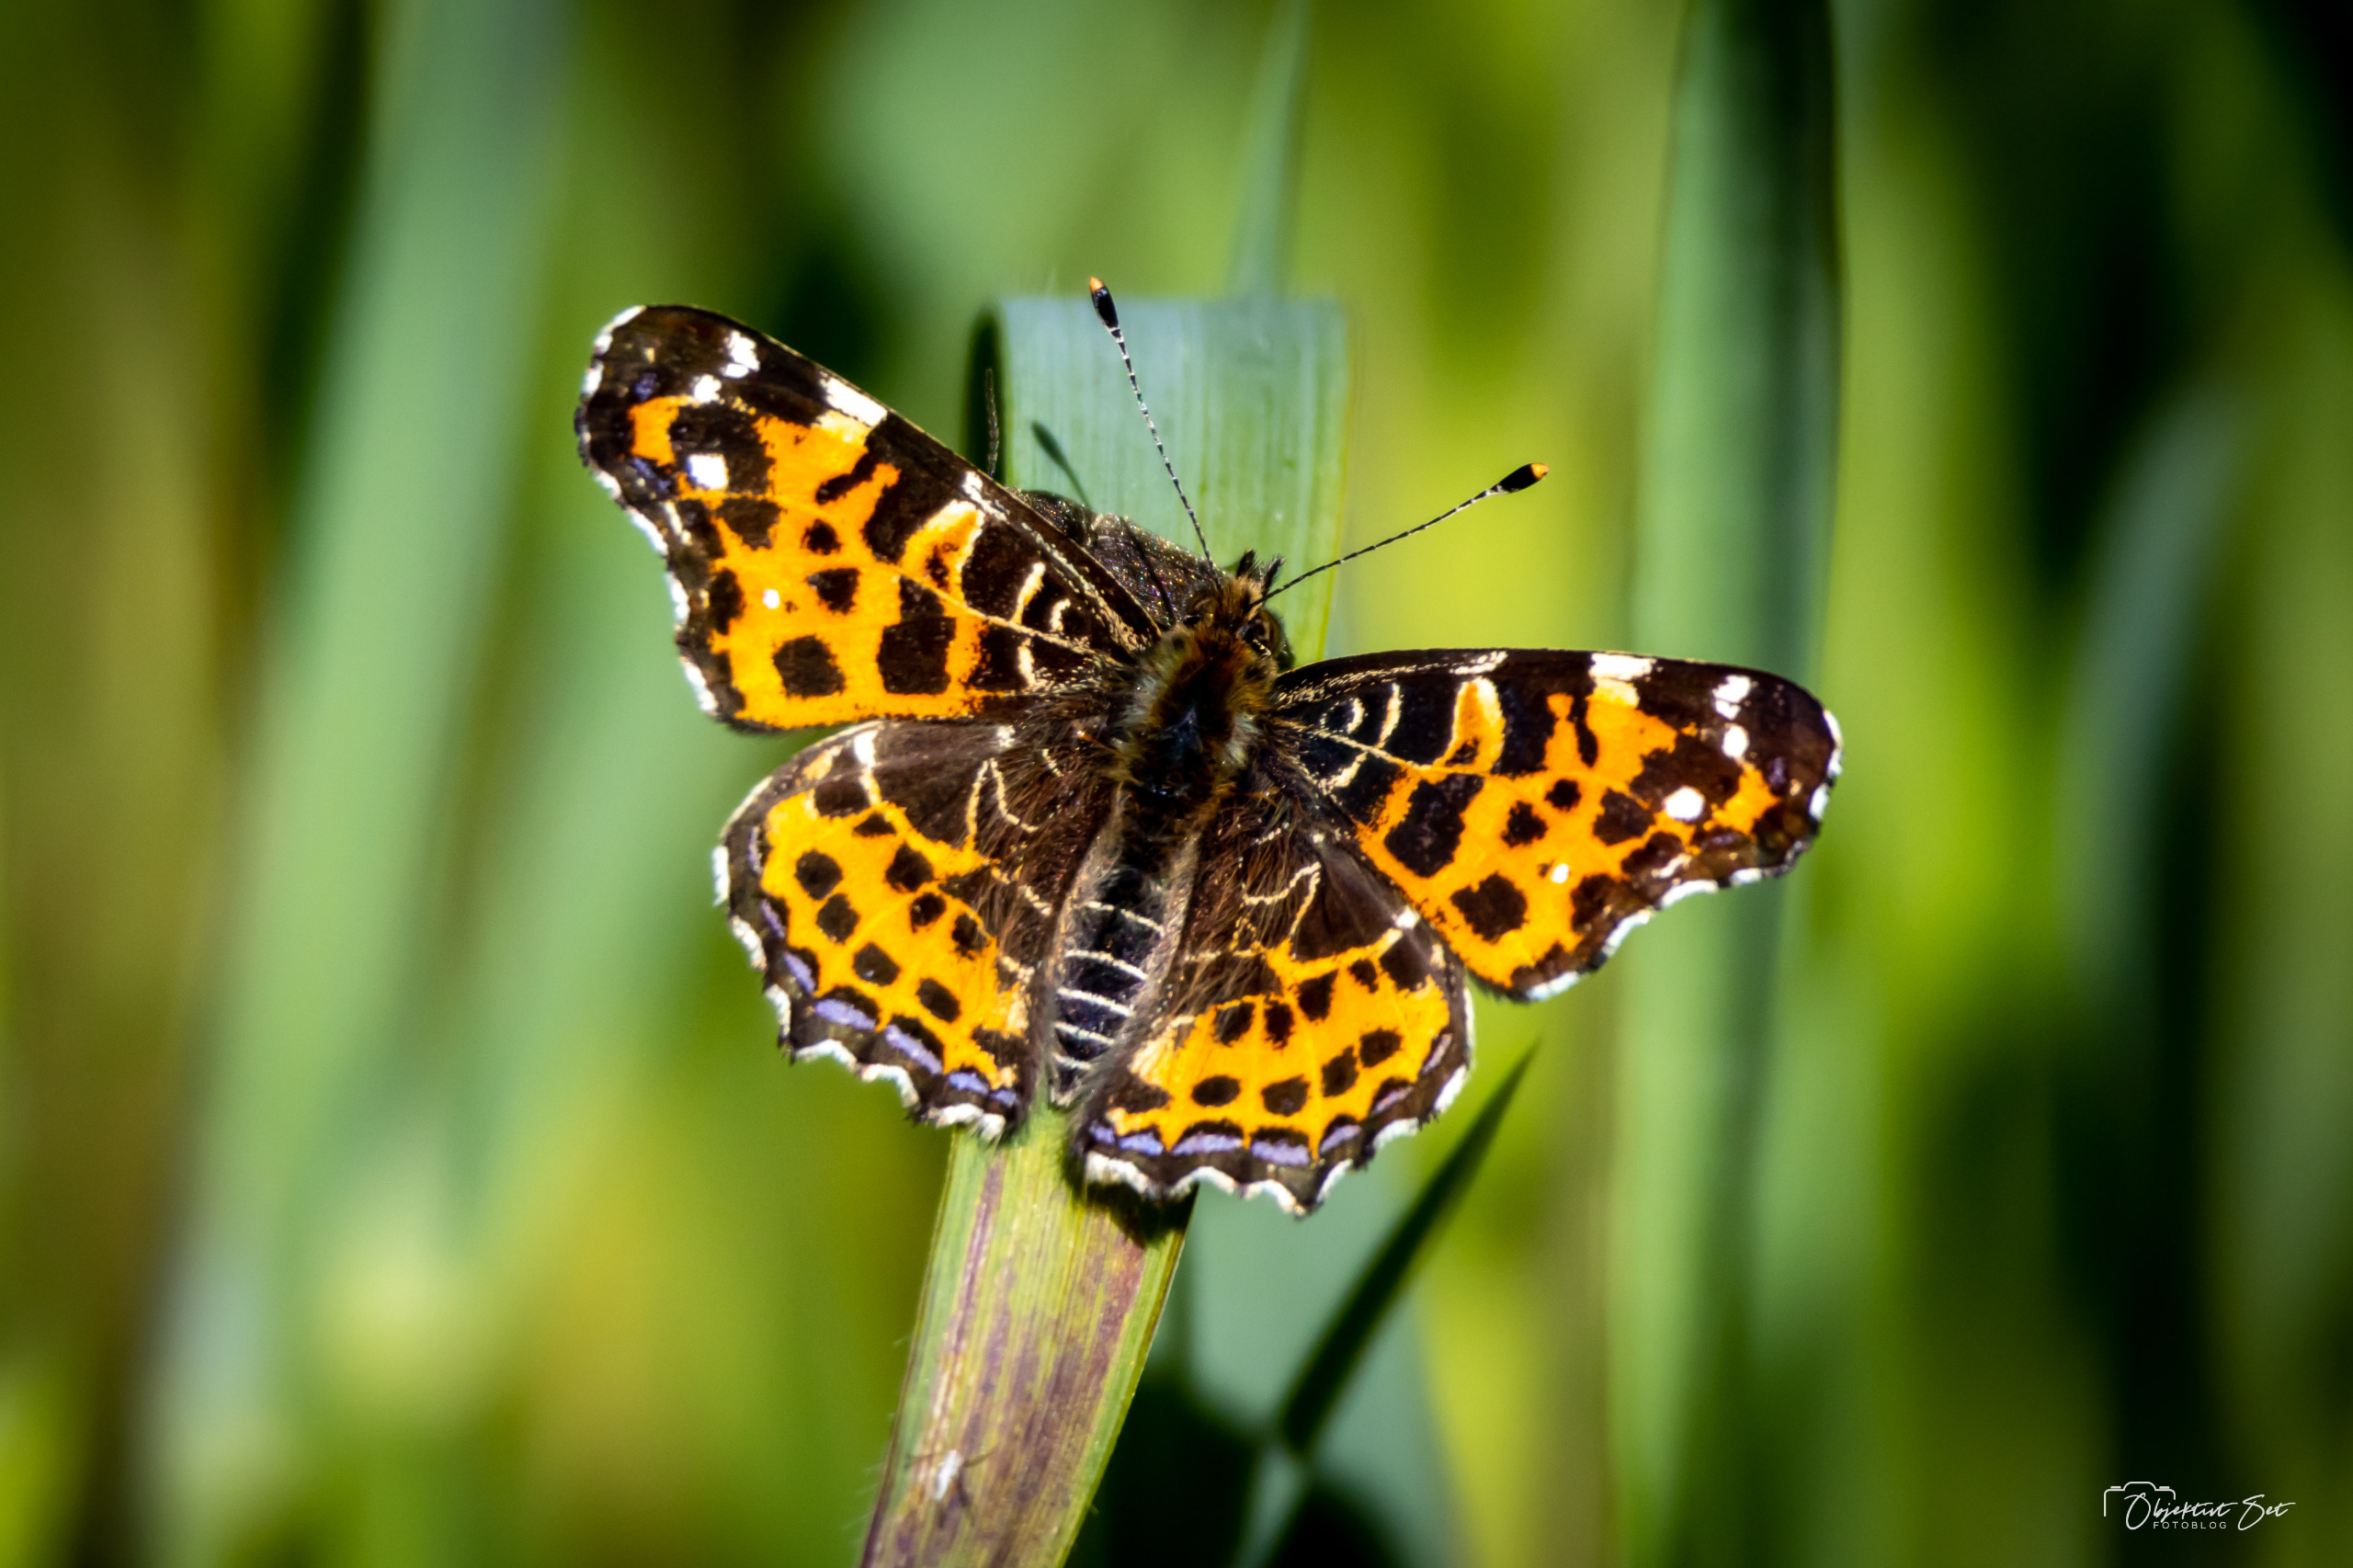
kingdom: Animalia
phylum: Arthropoda
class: Insecta
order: Lepidoptera
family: Nymphalidae
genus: Araschnia
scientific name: Araschnia levana
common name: Nældesommerfugl
